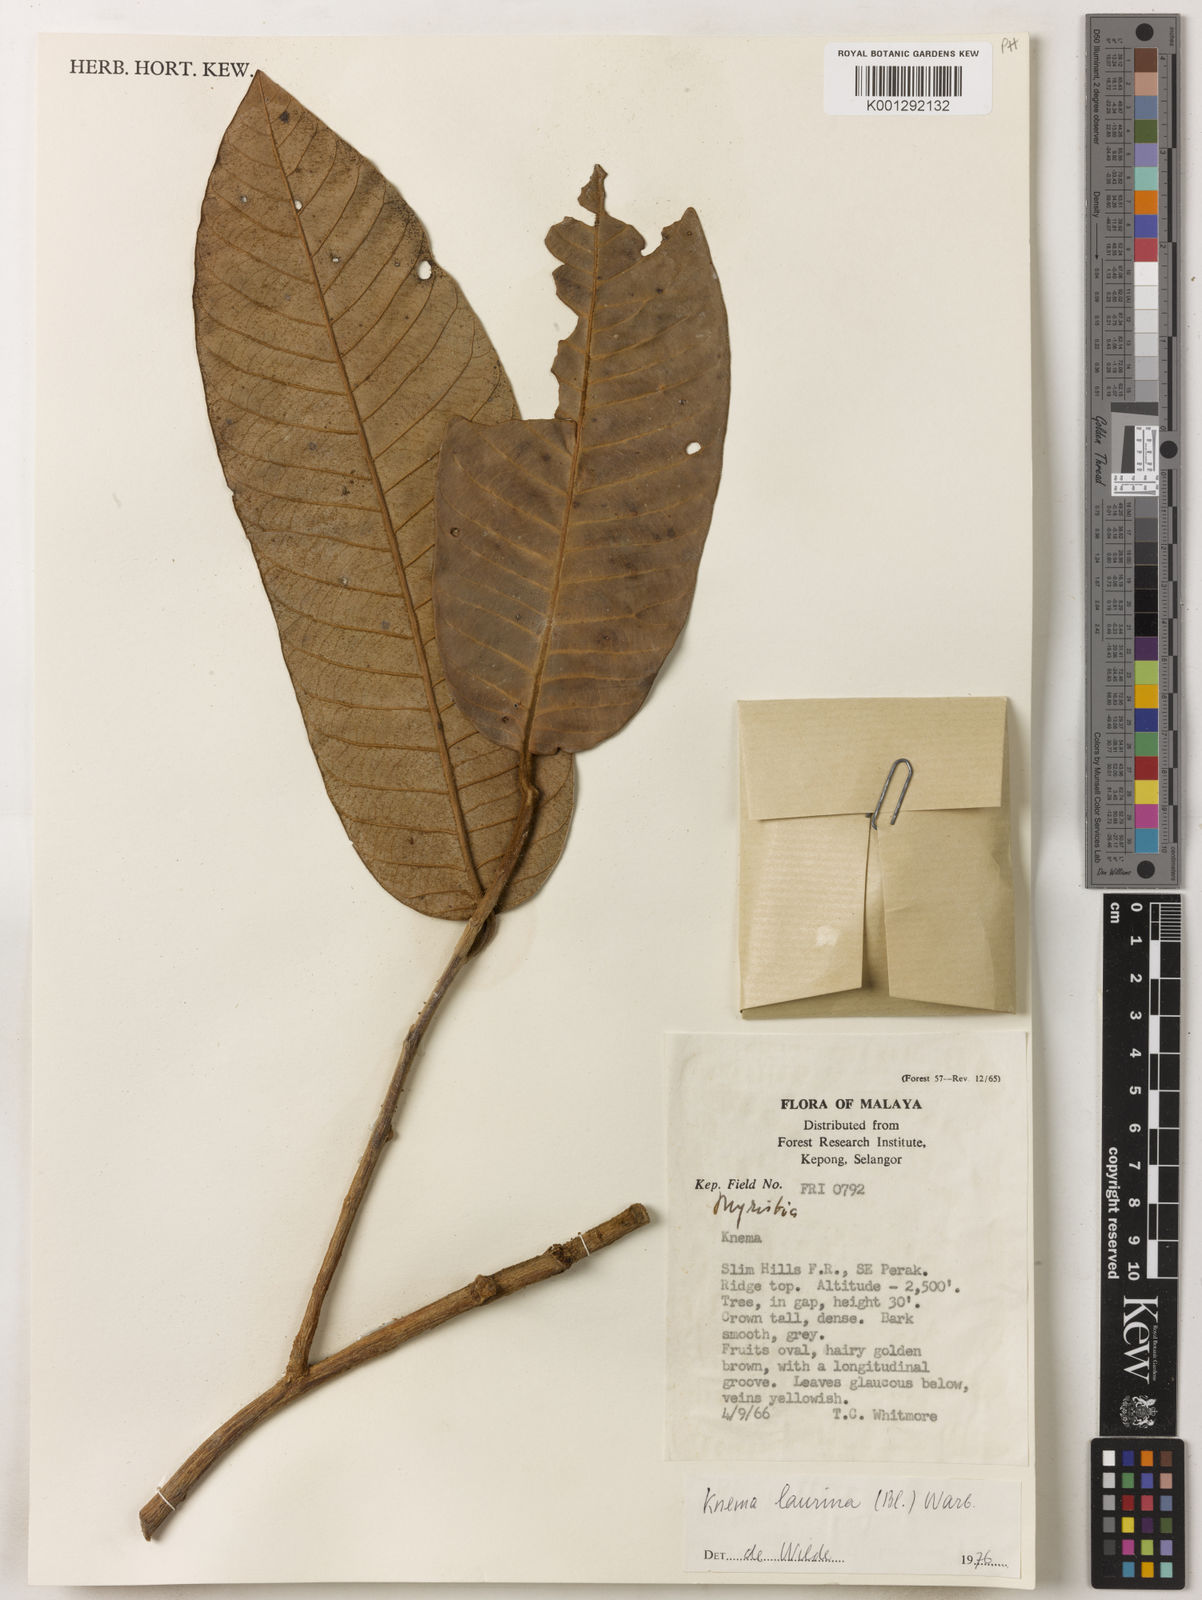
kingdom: Plantae
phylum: Tracheophyta
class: Magnoliopsida
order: Magnoliales
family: Myristicaceae
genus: Knema
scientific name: Knema laurina
